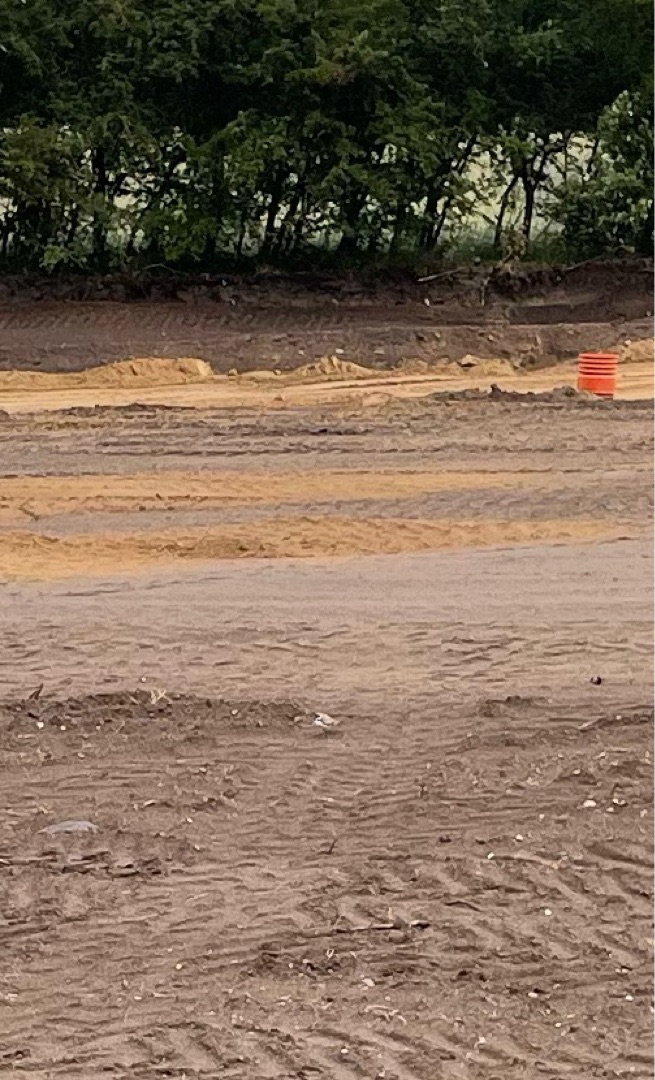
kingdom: Animalia
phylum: Chordata
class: Aves
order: Charadriiformes
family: Charadriidae
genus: Charadrius
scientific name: Charadrius dubius
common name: Lille præstekrave
